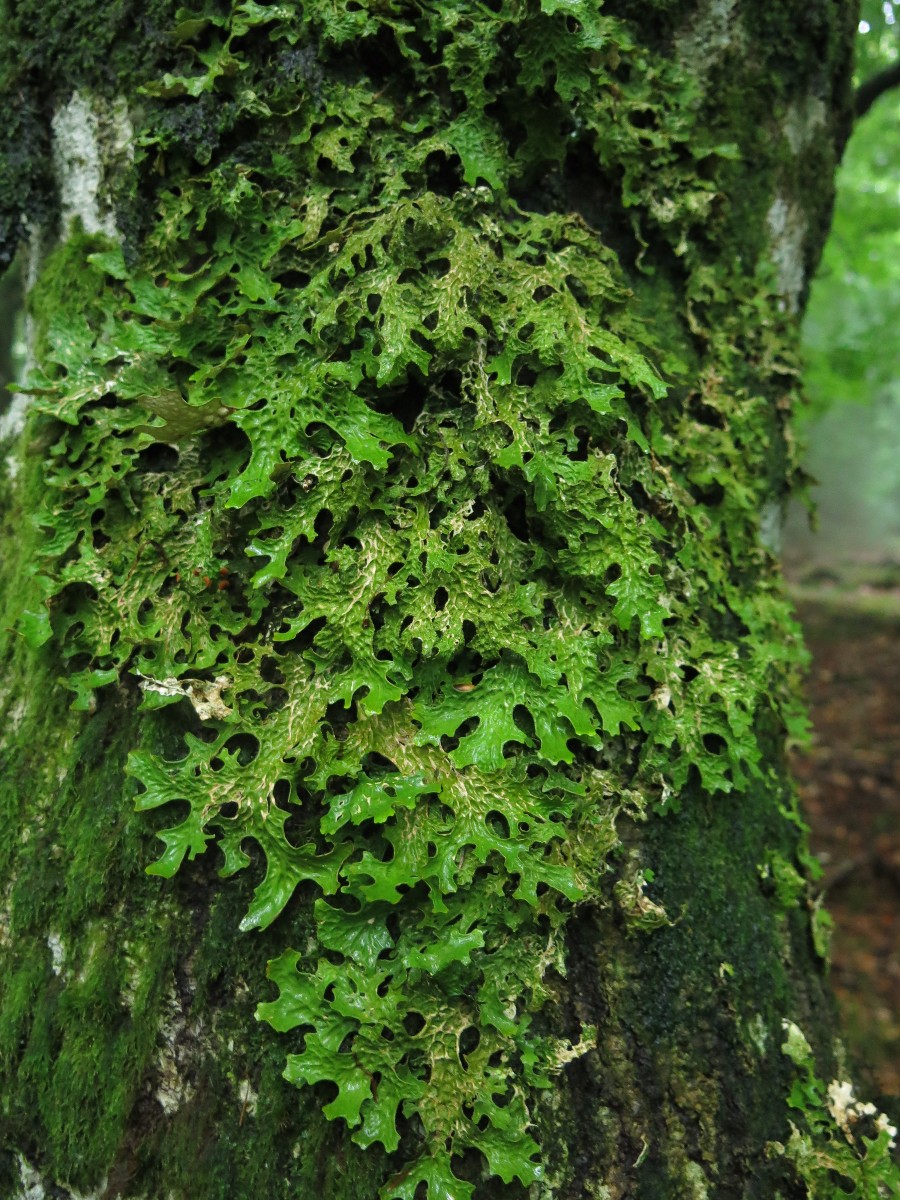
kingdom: Fungi
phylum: Ascomycota
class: Lecanoromycetes
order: Peltigerales
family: Lobariaceae
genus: Lobaria
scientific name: Lobaria pulmonaria
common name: almindelig lungelav
